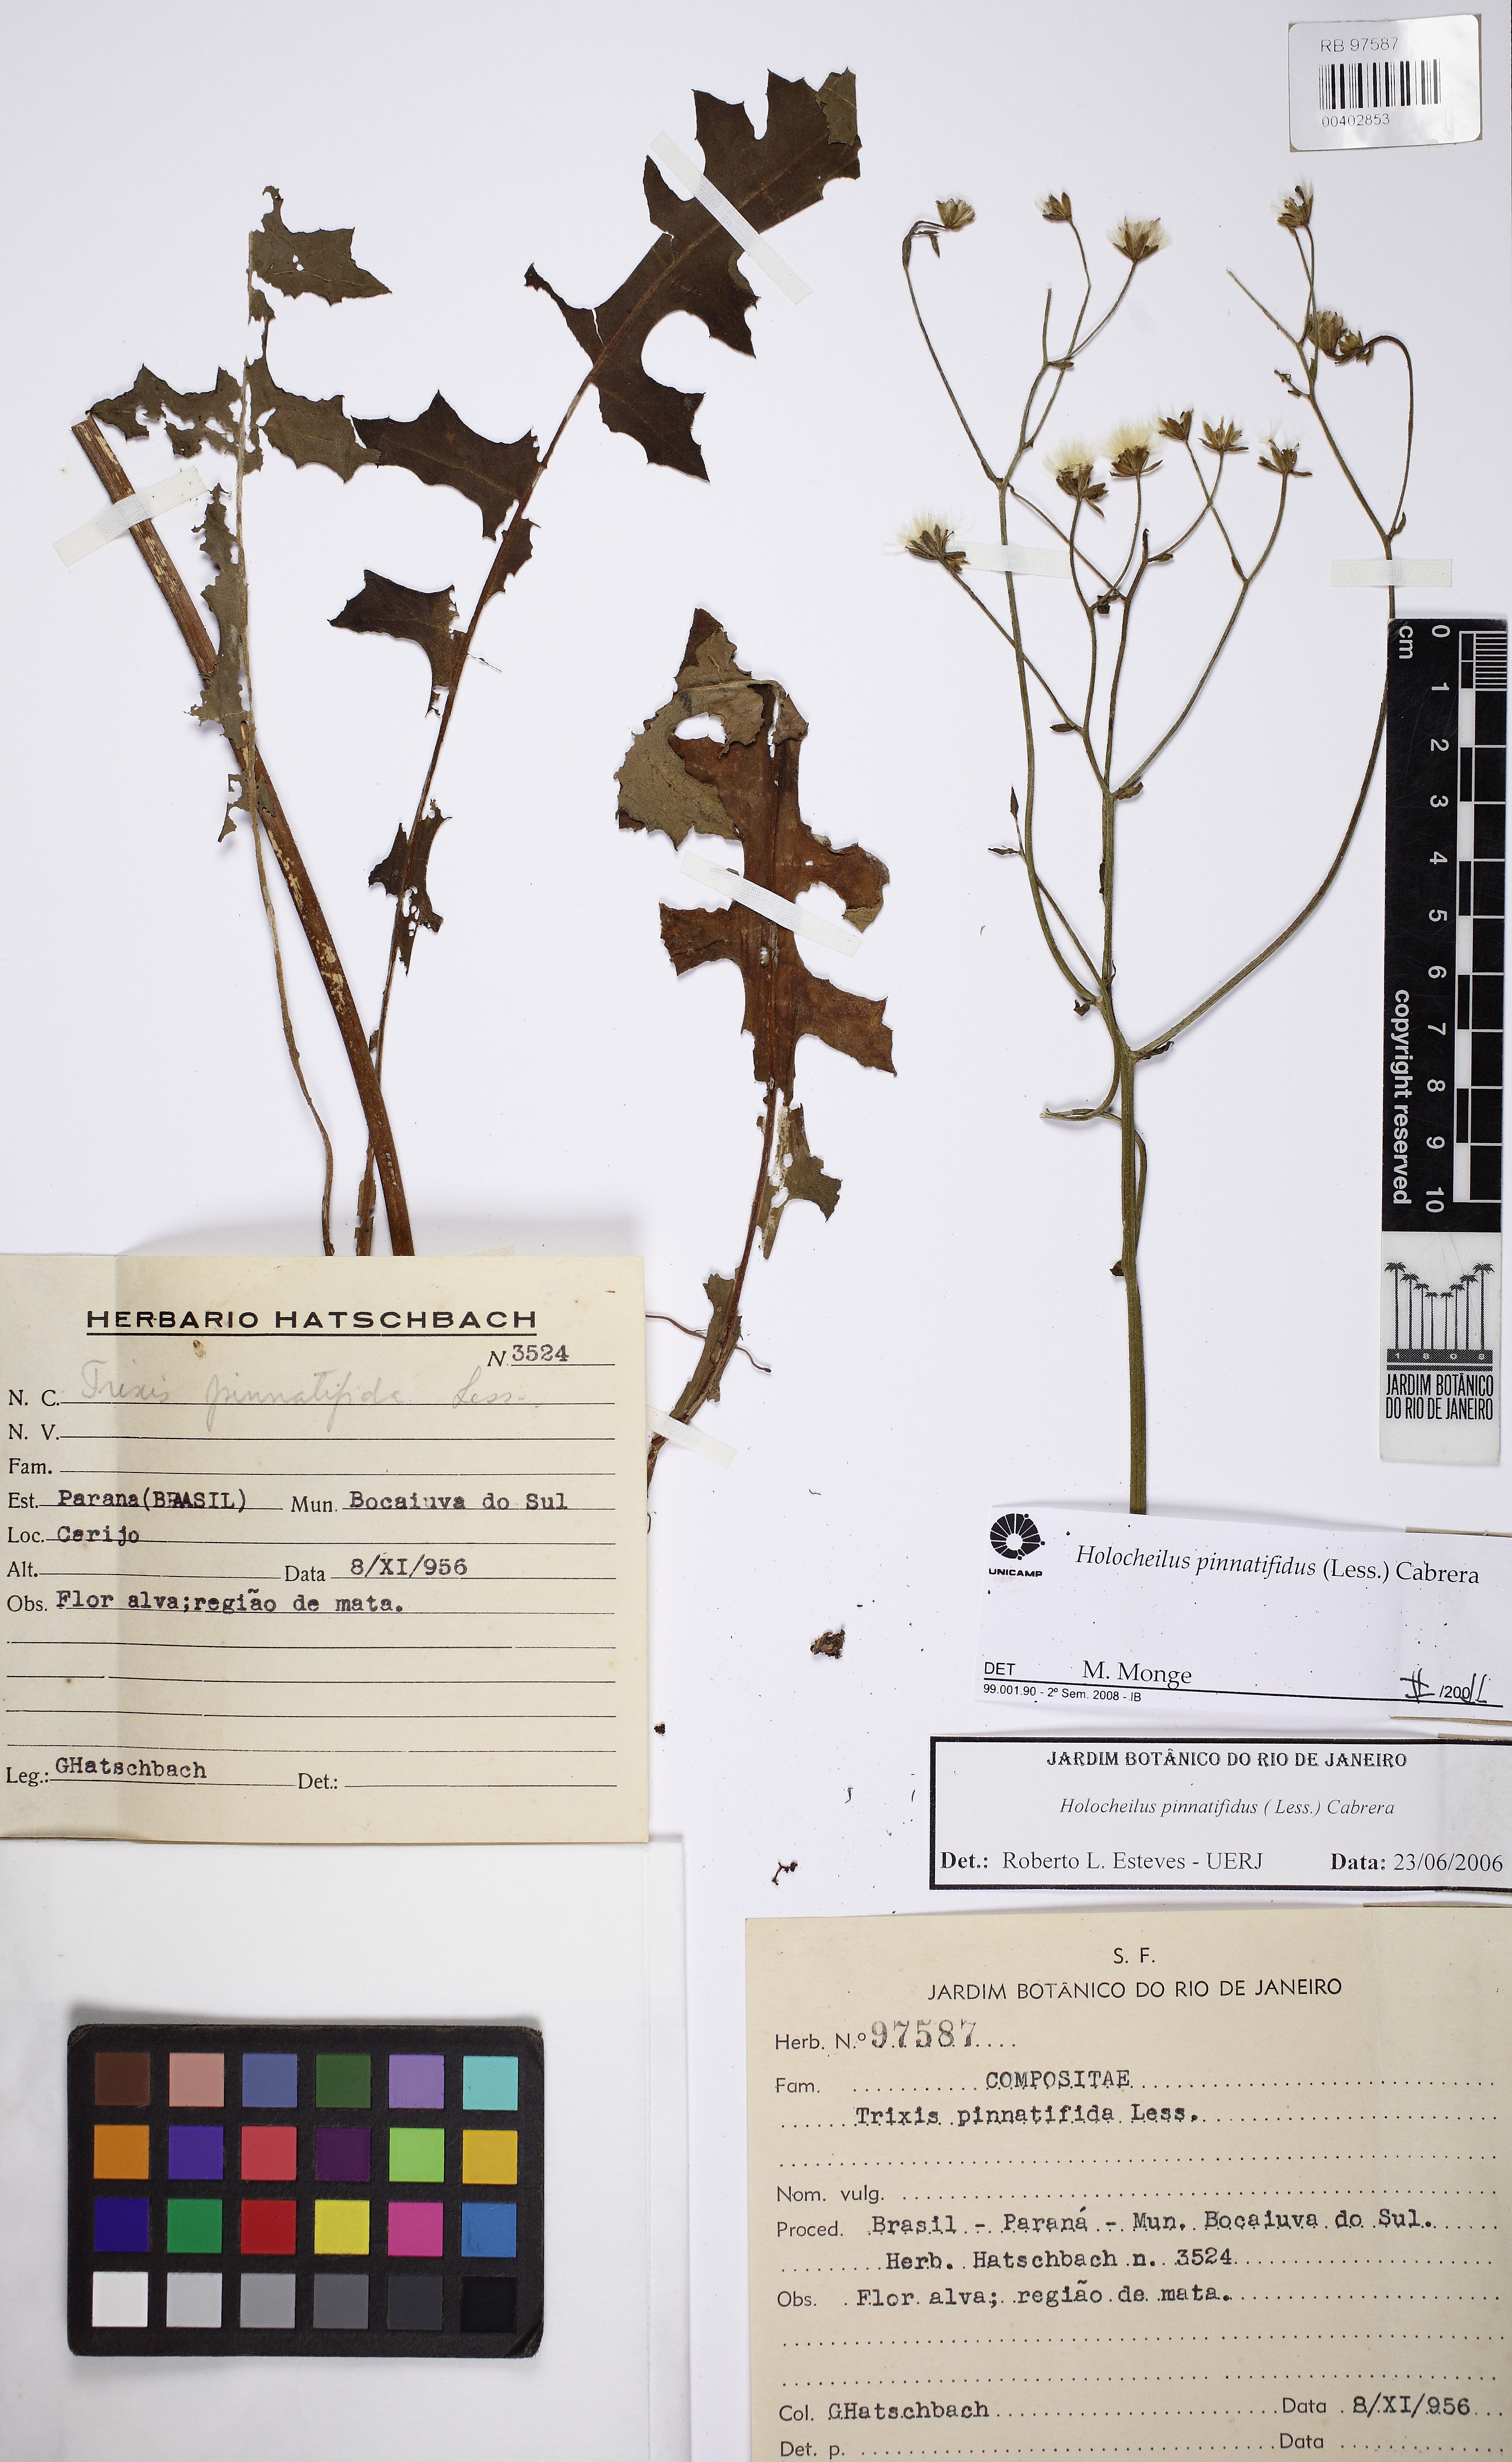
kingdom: Plantae
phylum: Tracheophyta
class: Magnoliopsida
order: Asterales
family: Asteraceae
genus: Holocheilus
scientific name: Holocheilus pinnatifidus
